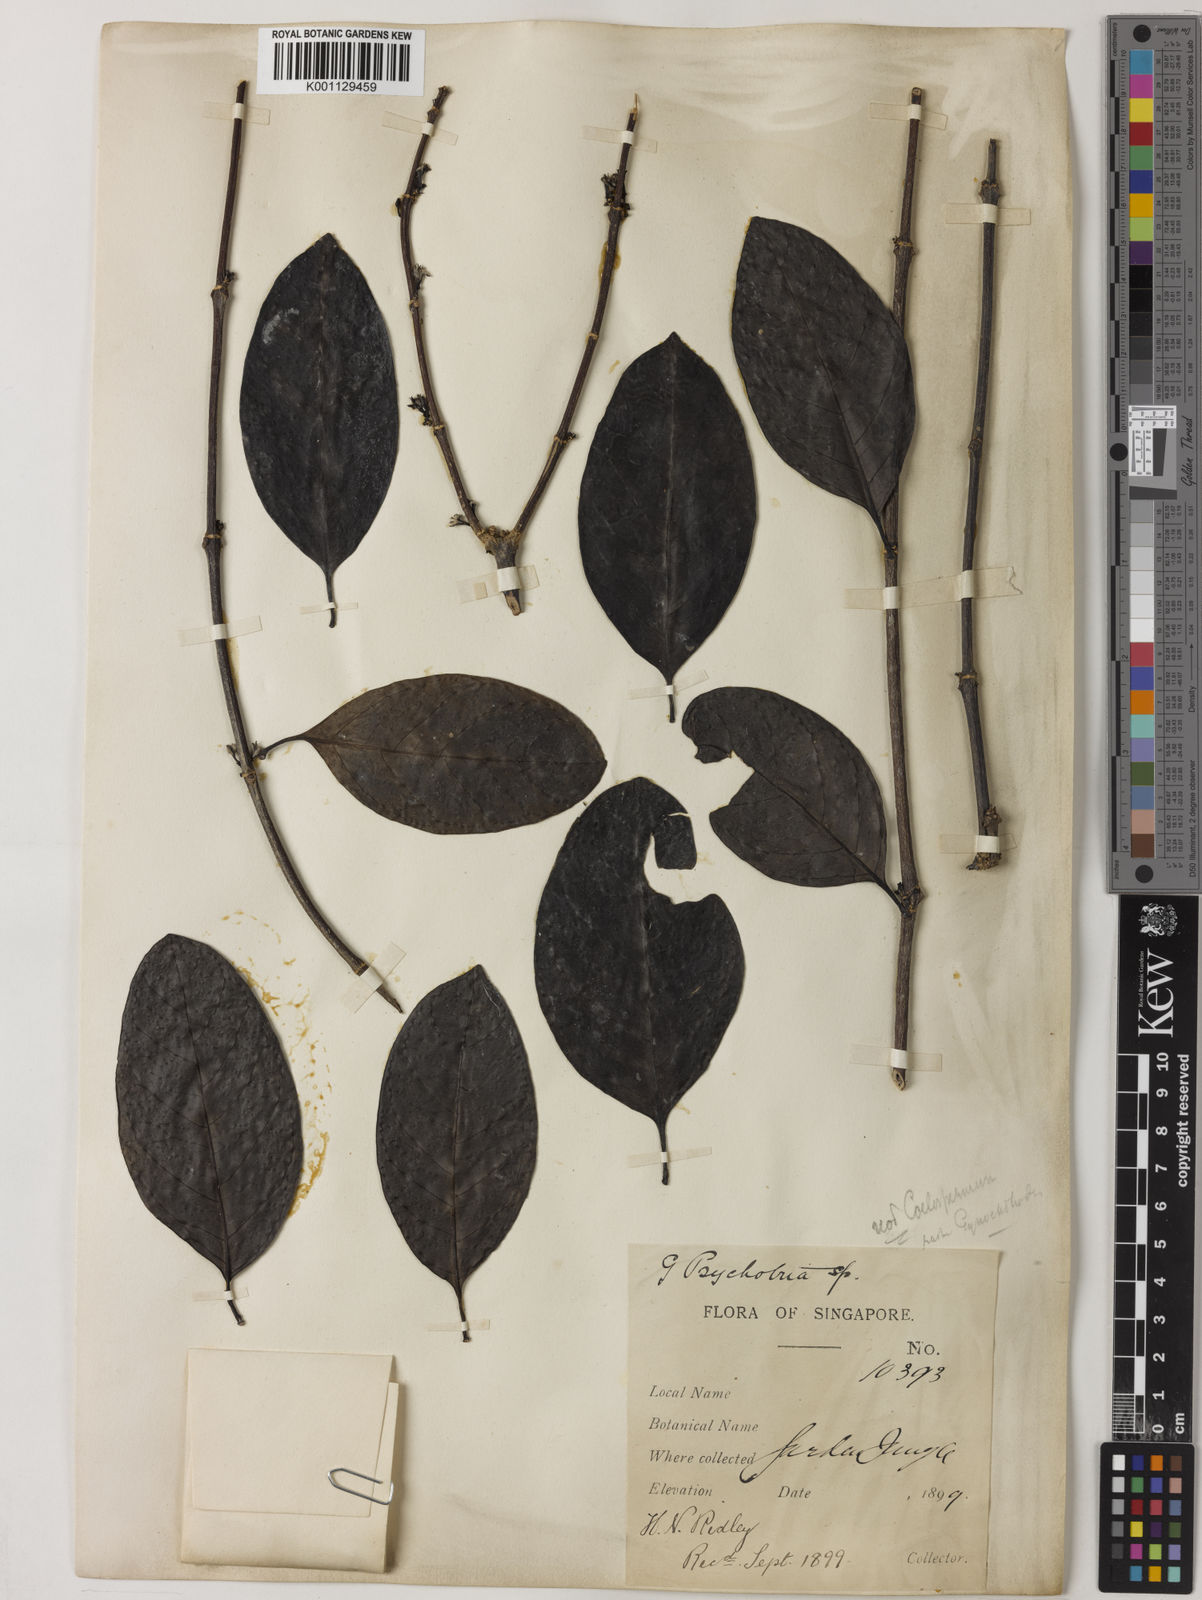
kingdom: Plantae
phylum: Tracheophyta
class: Magnoliopsida
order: Gentianales
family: Rubiaceae
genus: Gynochthodes
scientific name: Gynochthodes praetermissa
